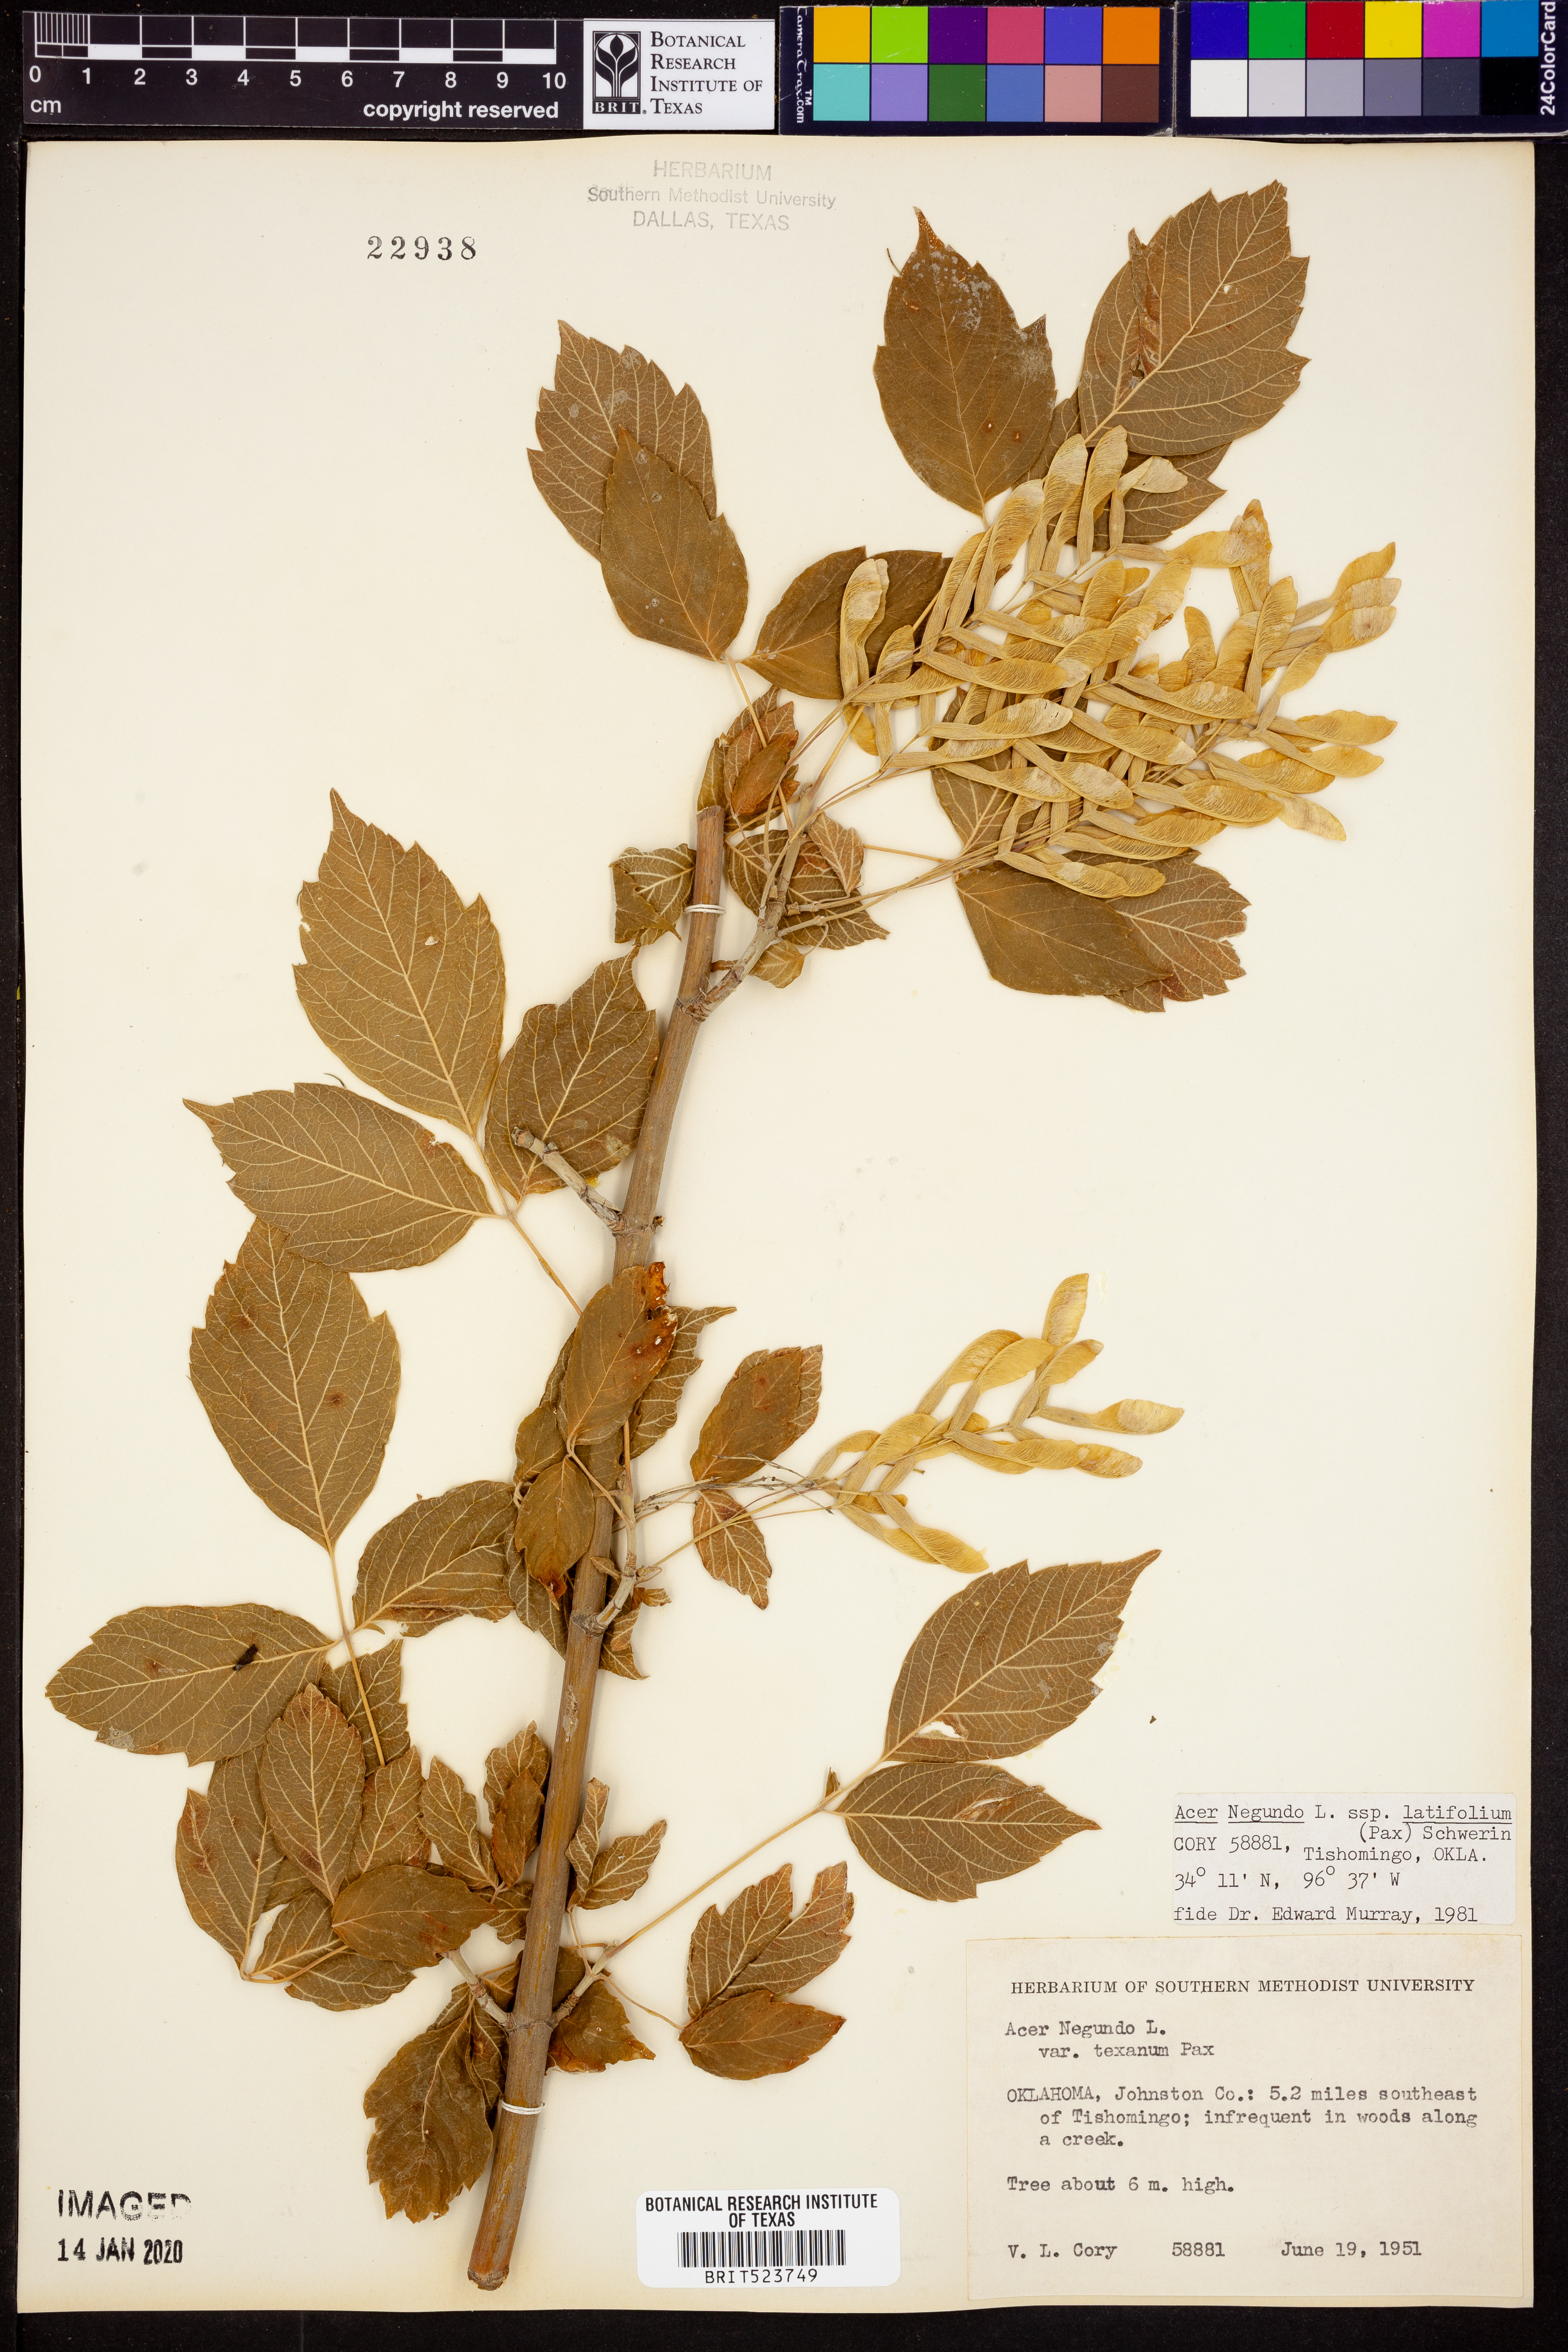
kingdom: Plantae
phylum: Tracheophyta
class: Magnoliopsida
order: Sapindales
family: Sapindaceae
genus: Acer
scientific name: Acer negundo
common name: Ashleaf maple
